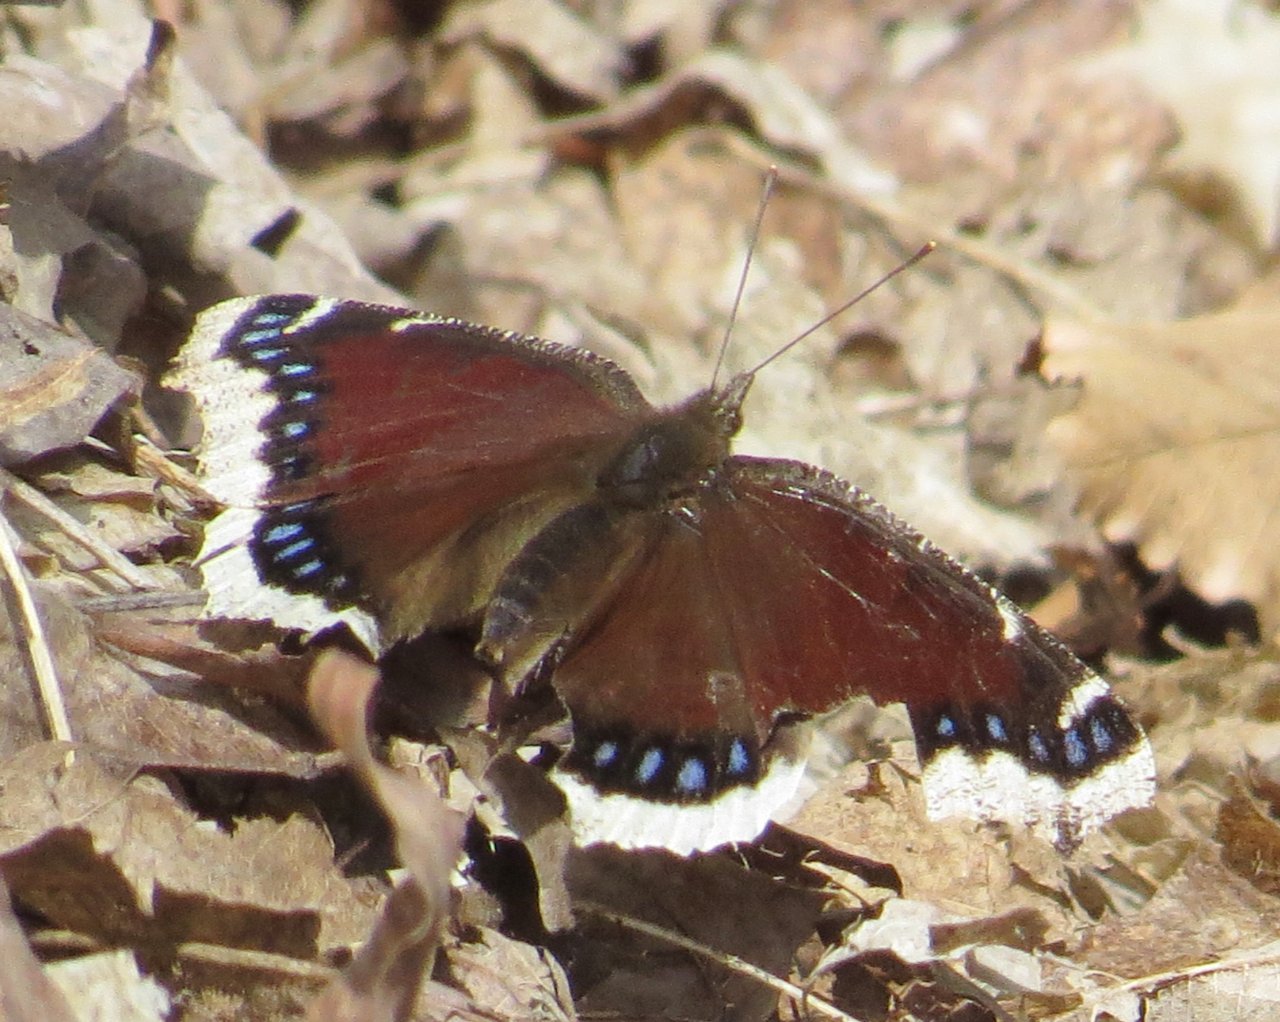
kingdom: Animalia
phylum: Arthropoda
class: Insecta
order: Lepidoptera
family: Nymphalidae
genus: Nymphalis
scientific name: Nymphalis antiopa
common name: Mourning Cloak
